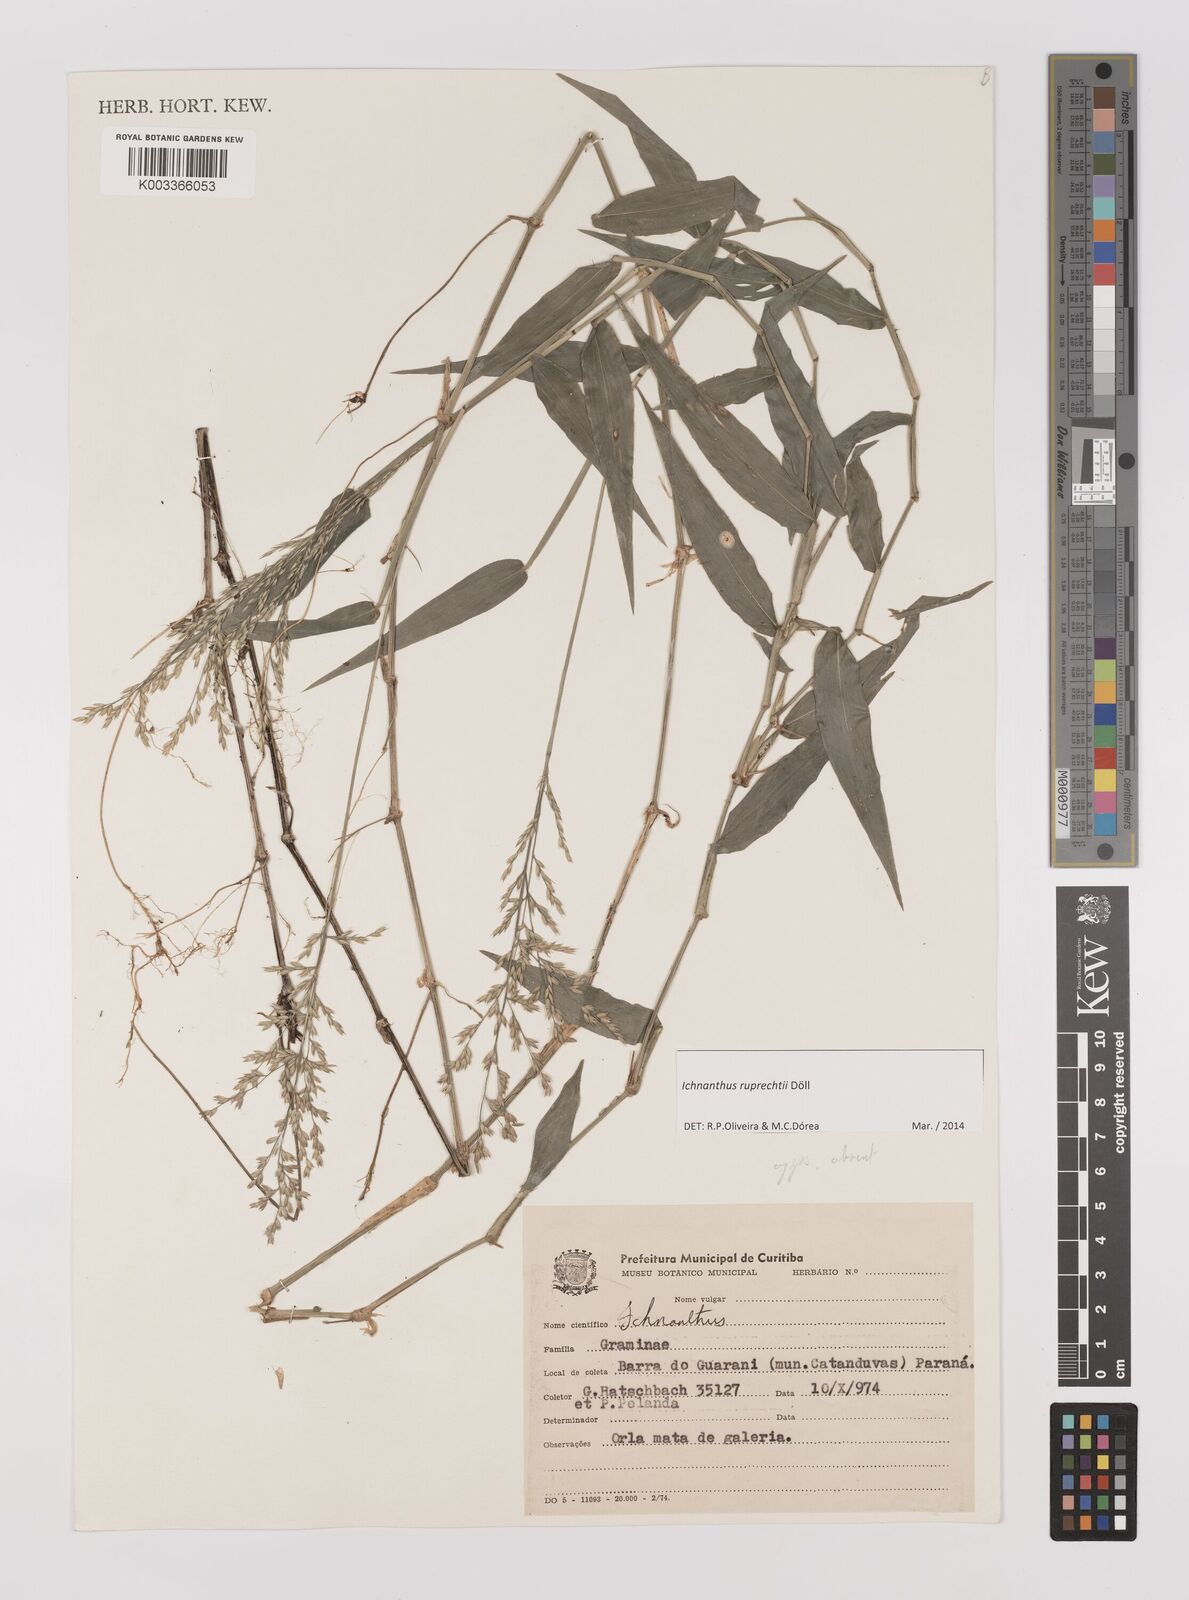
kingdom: Plantae
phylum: Tracheophyta
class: Liliopsida
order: Poales
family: Poaceae
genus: Ichnanthus
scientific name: Ichnanthus ruprechtii
